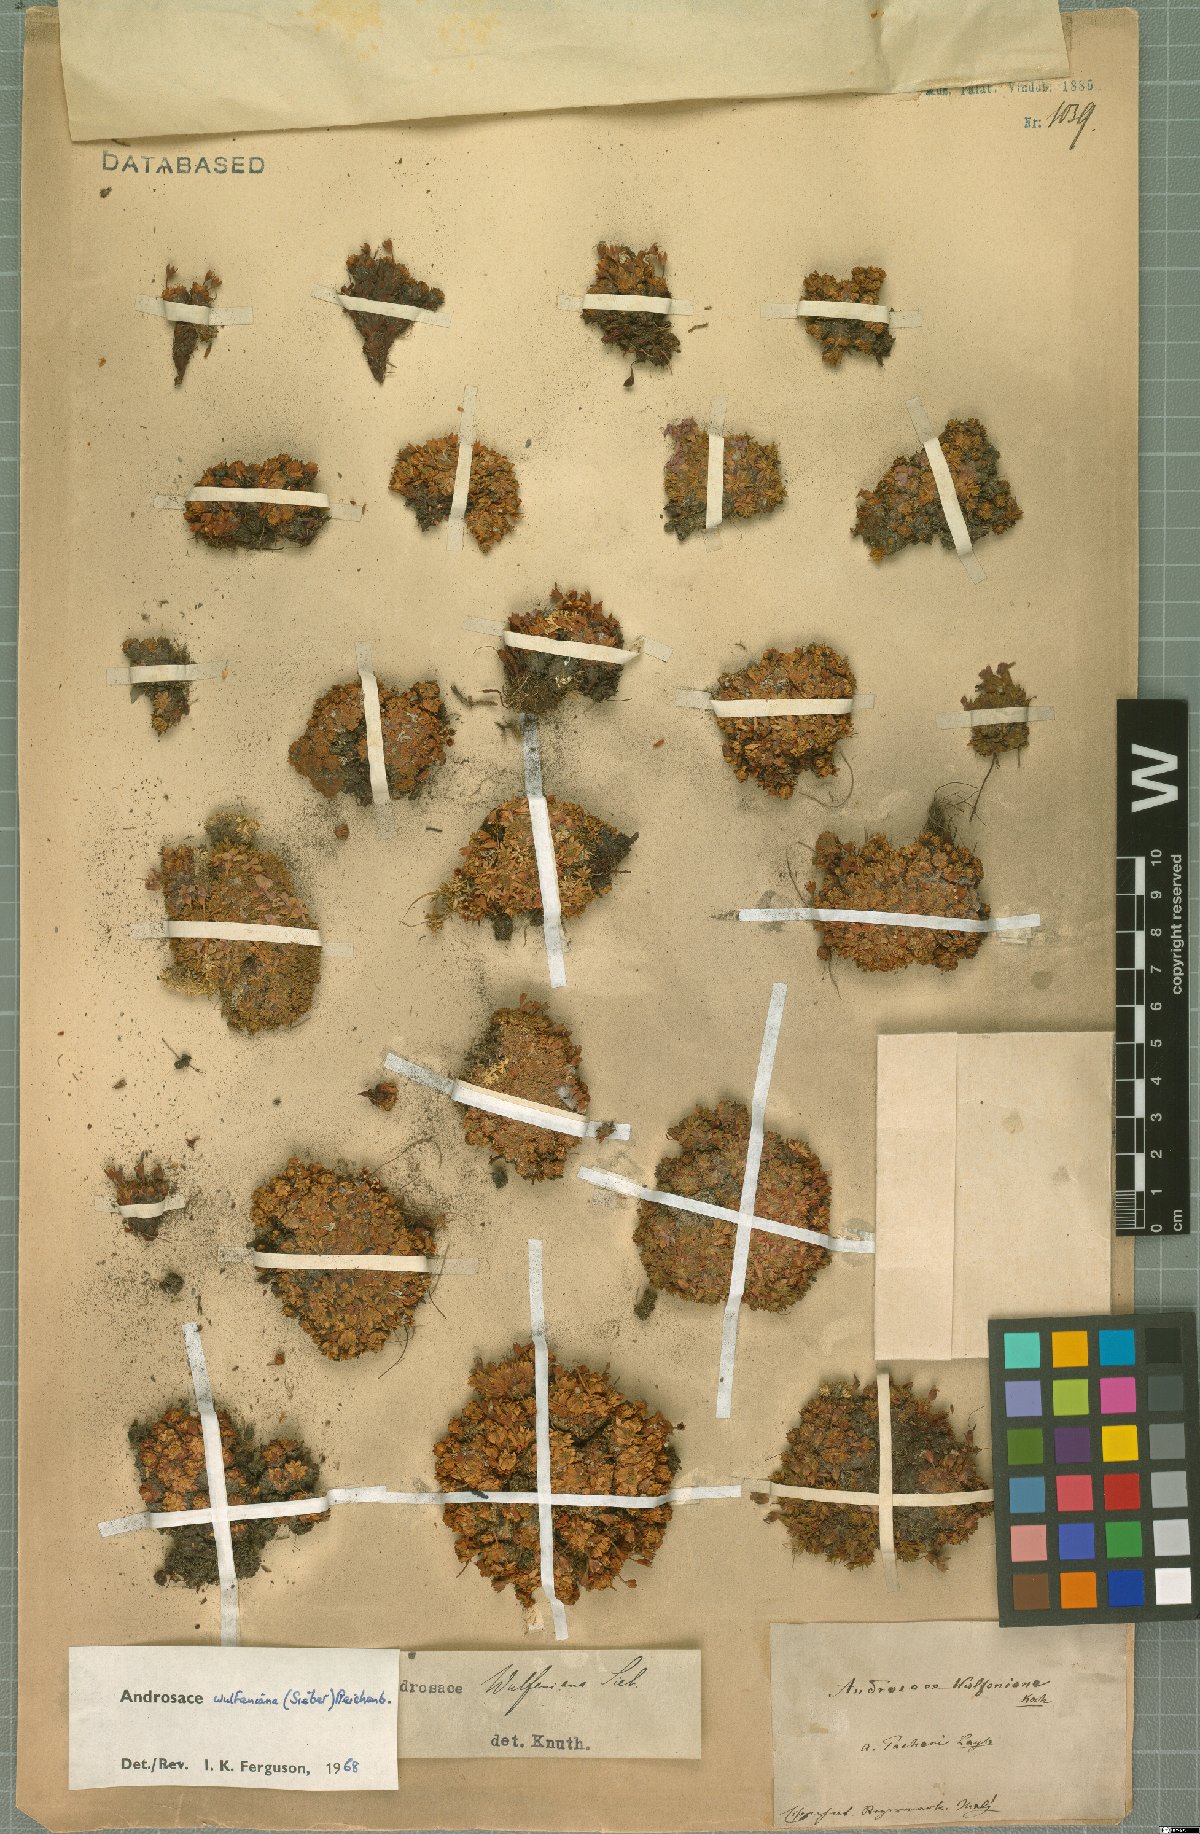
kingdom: Plantae
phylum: Tracheophyta
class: Magnoliopsida
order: Ericales
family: Primulaceae
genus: Androsace
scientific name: Androsace wulfeniana
